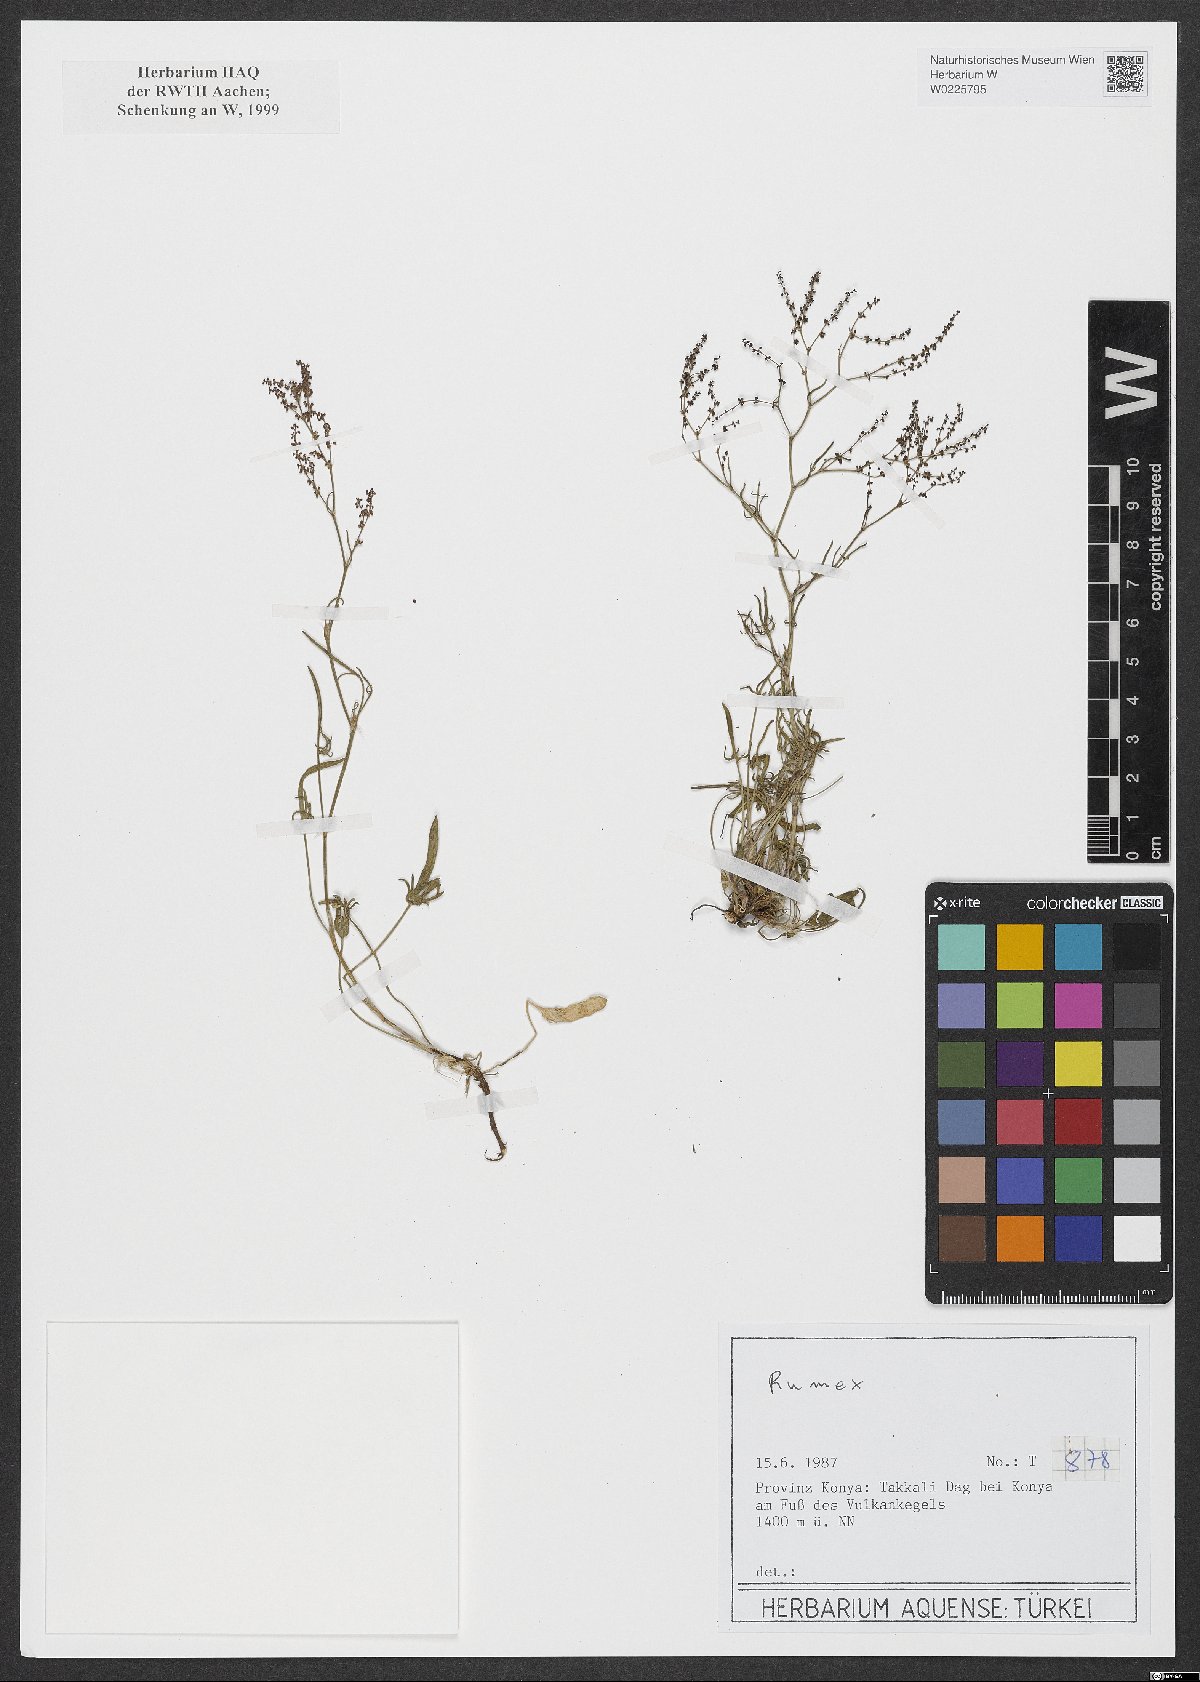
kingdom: Plantae
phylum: Tracheophyta
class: Magnoliopsida
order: Caryophyllales
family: Polygonaceae
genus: Rumex
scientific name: Rumex
